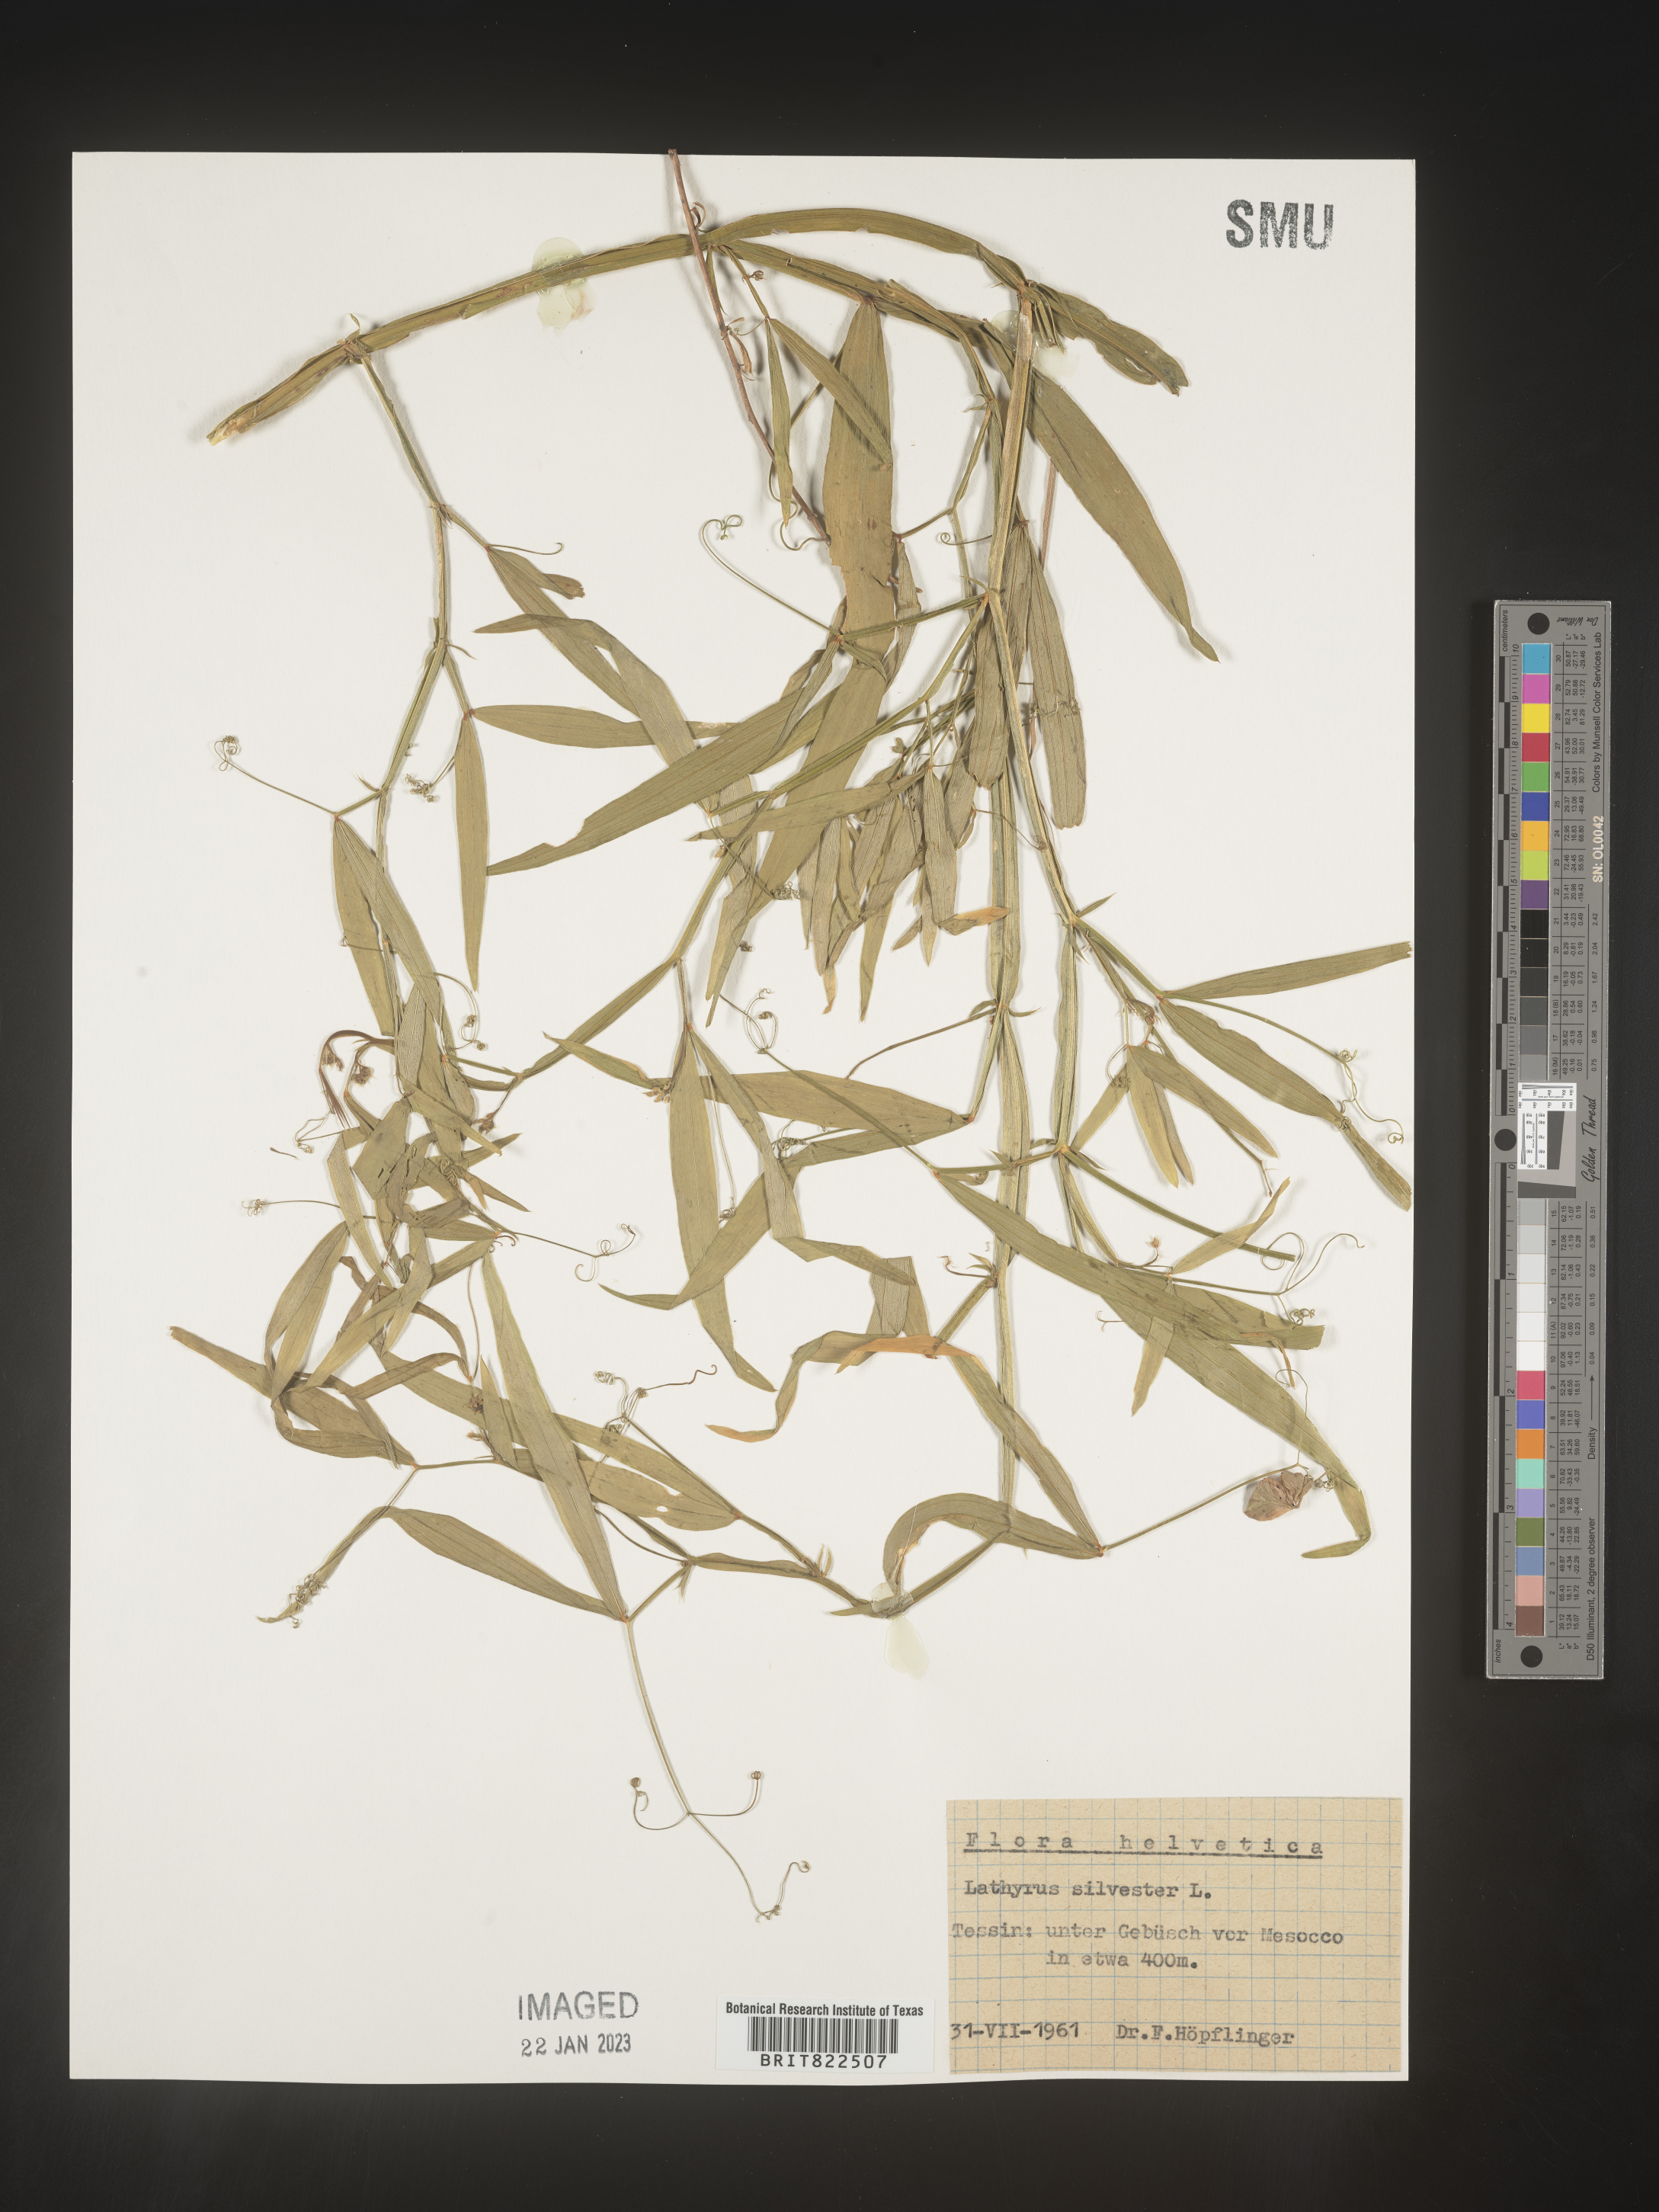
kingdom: Plantae
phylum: Tracheophyta
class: Magnoliopsida
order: Fabales
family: Fabaceae
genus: Lathyrus
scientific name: Lathyrus
